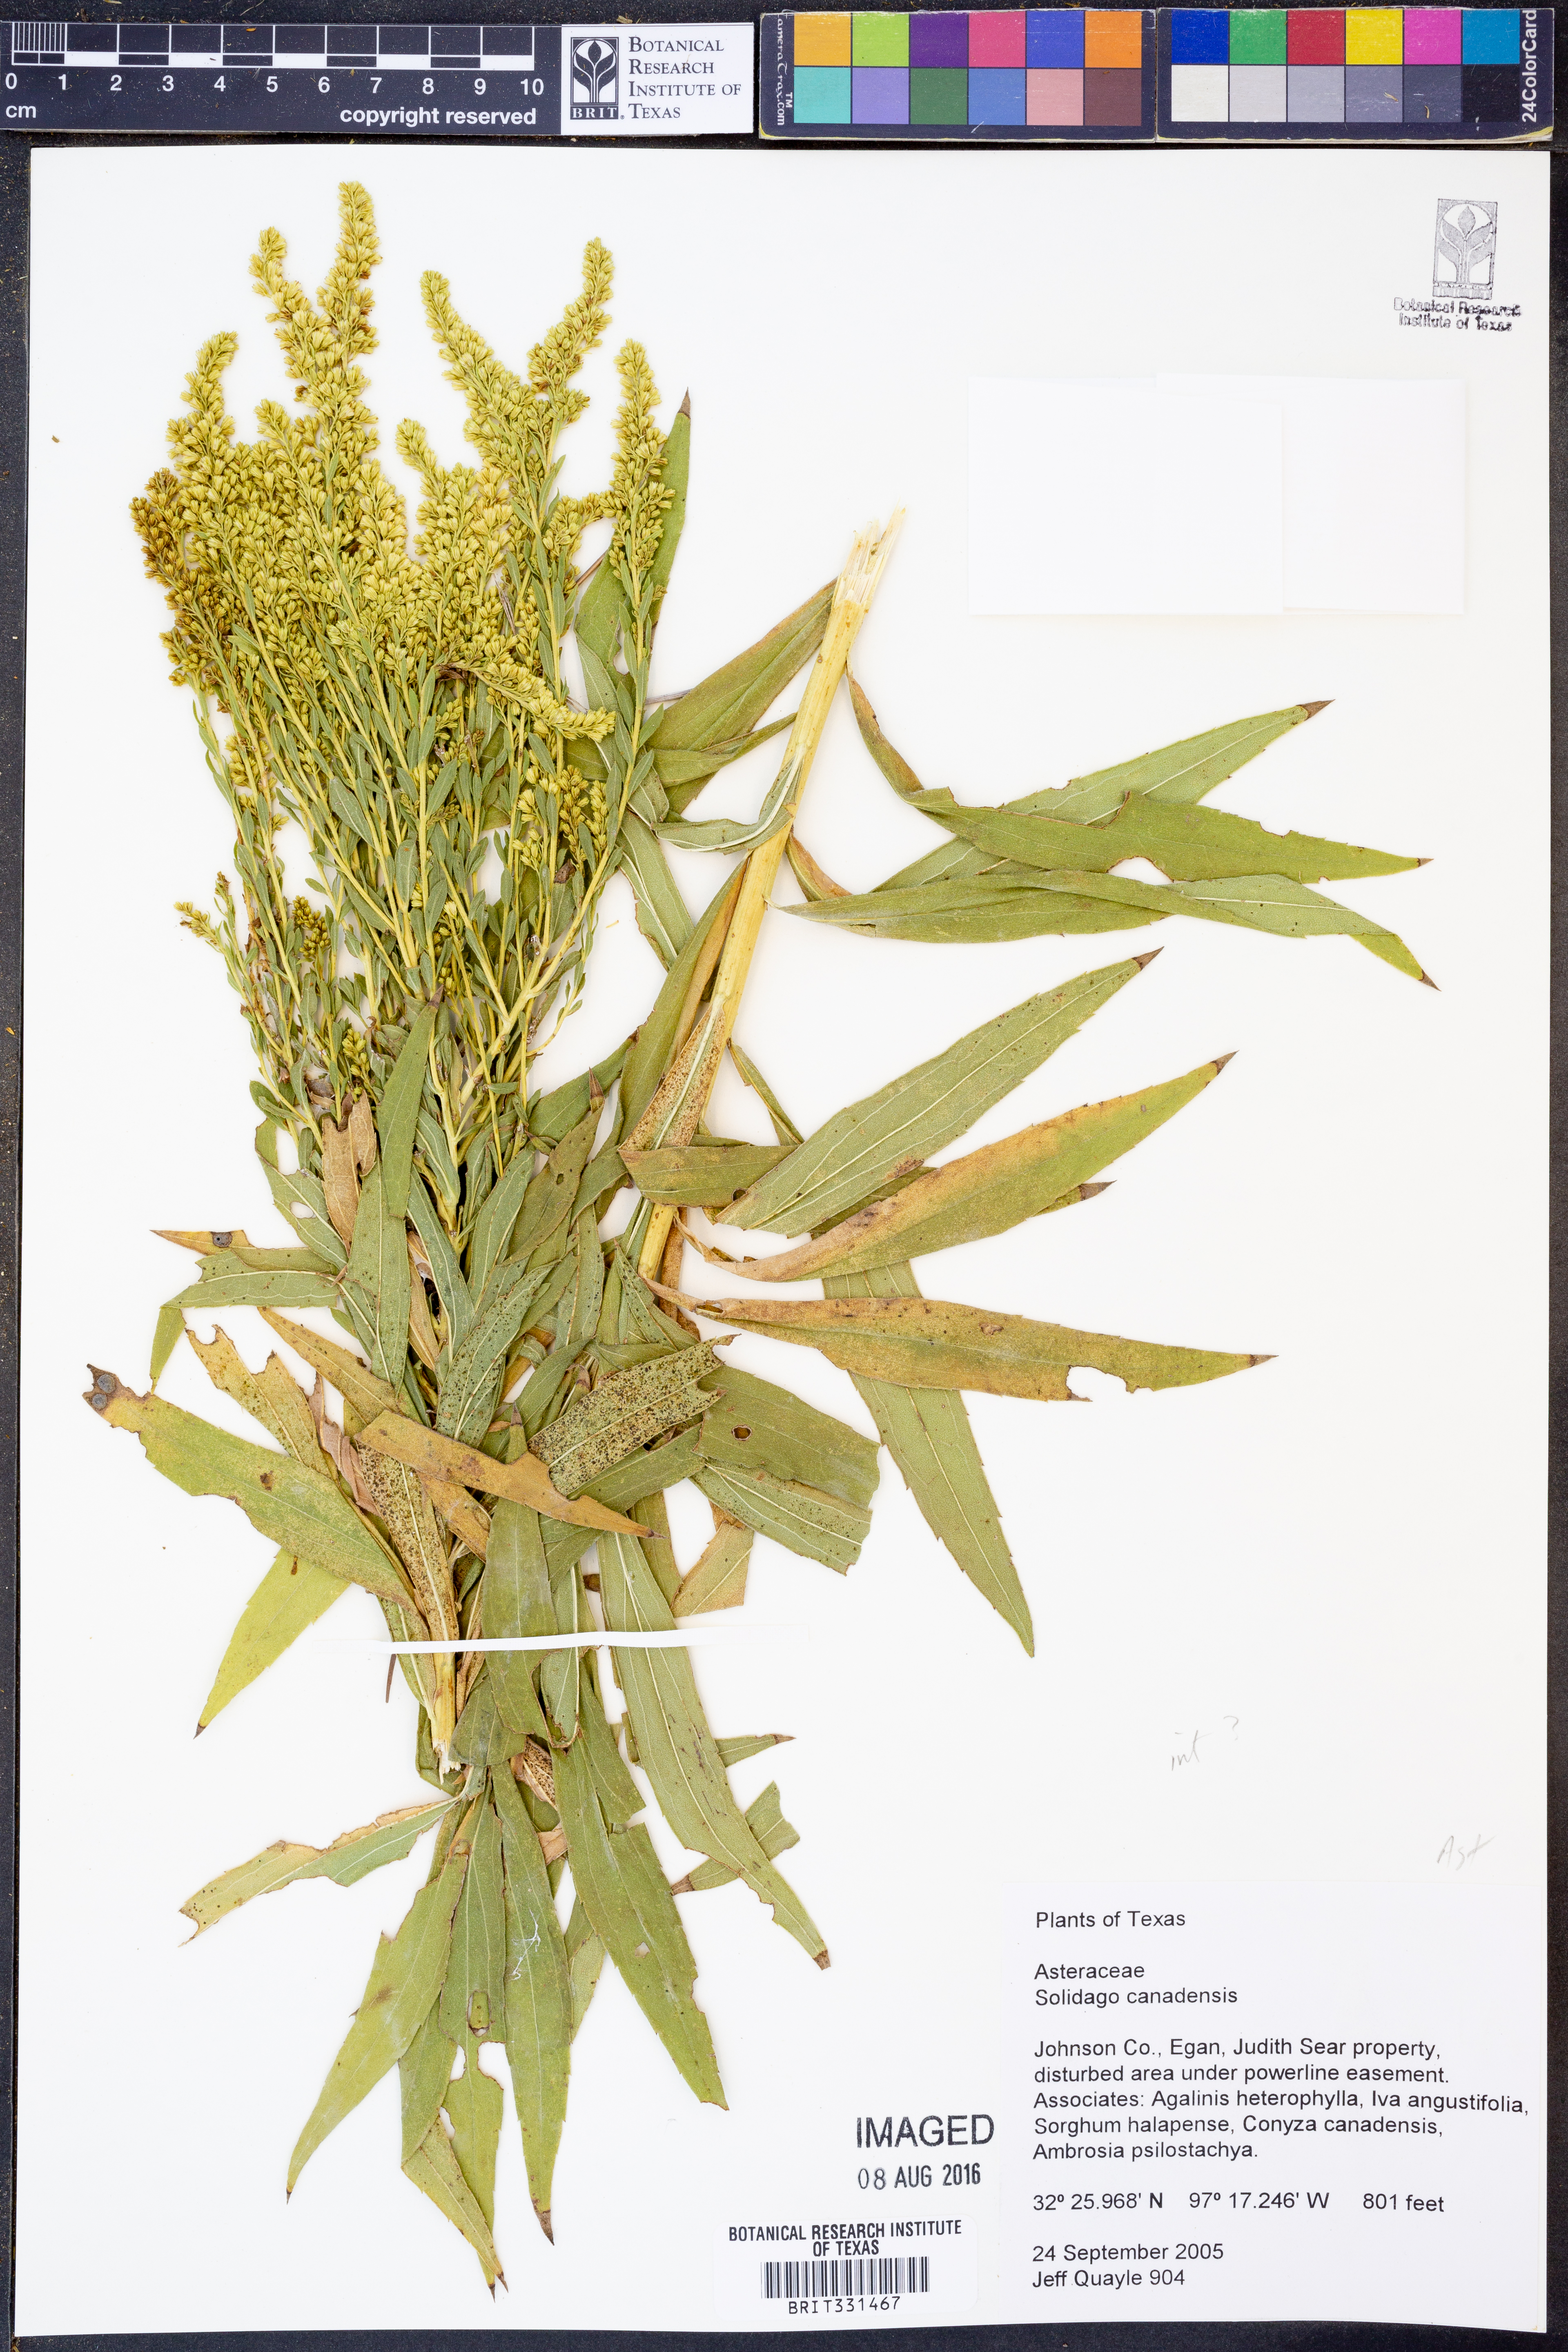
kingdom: Plantae
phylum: Tracheophyta
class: Magnoliopsida
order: Asterales
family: Asteraceae
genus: Solidago
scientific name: Solidago canadensis
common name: Canada goldenrod
